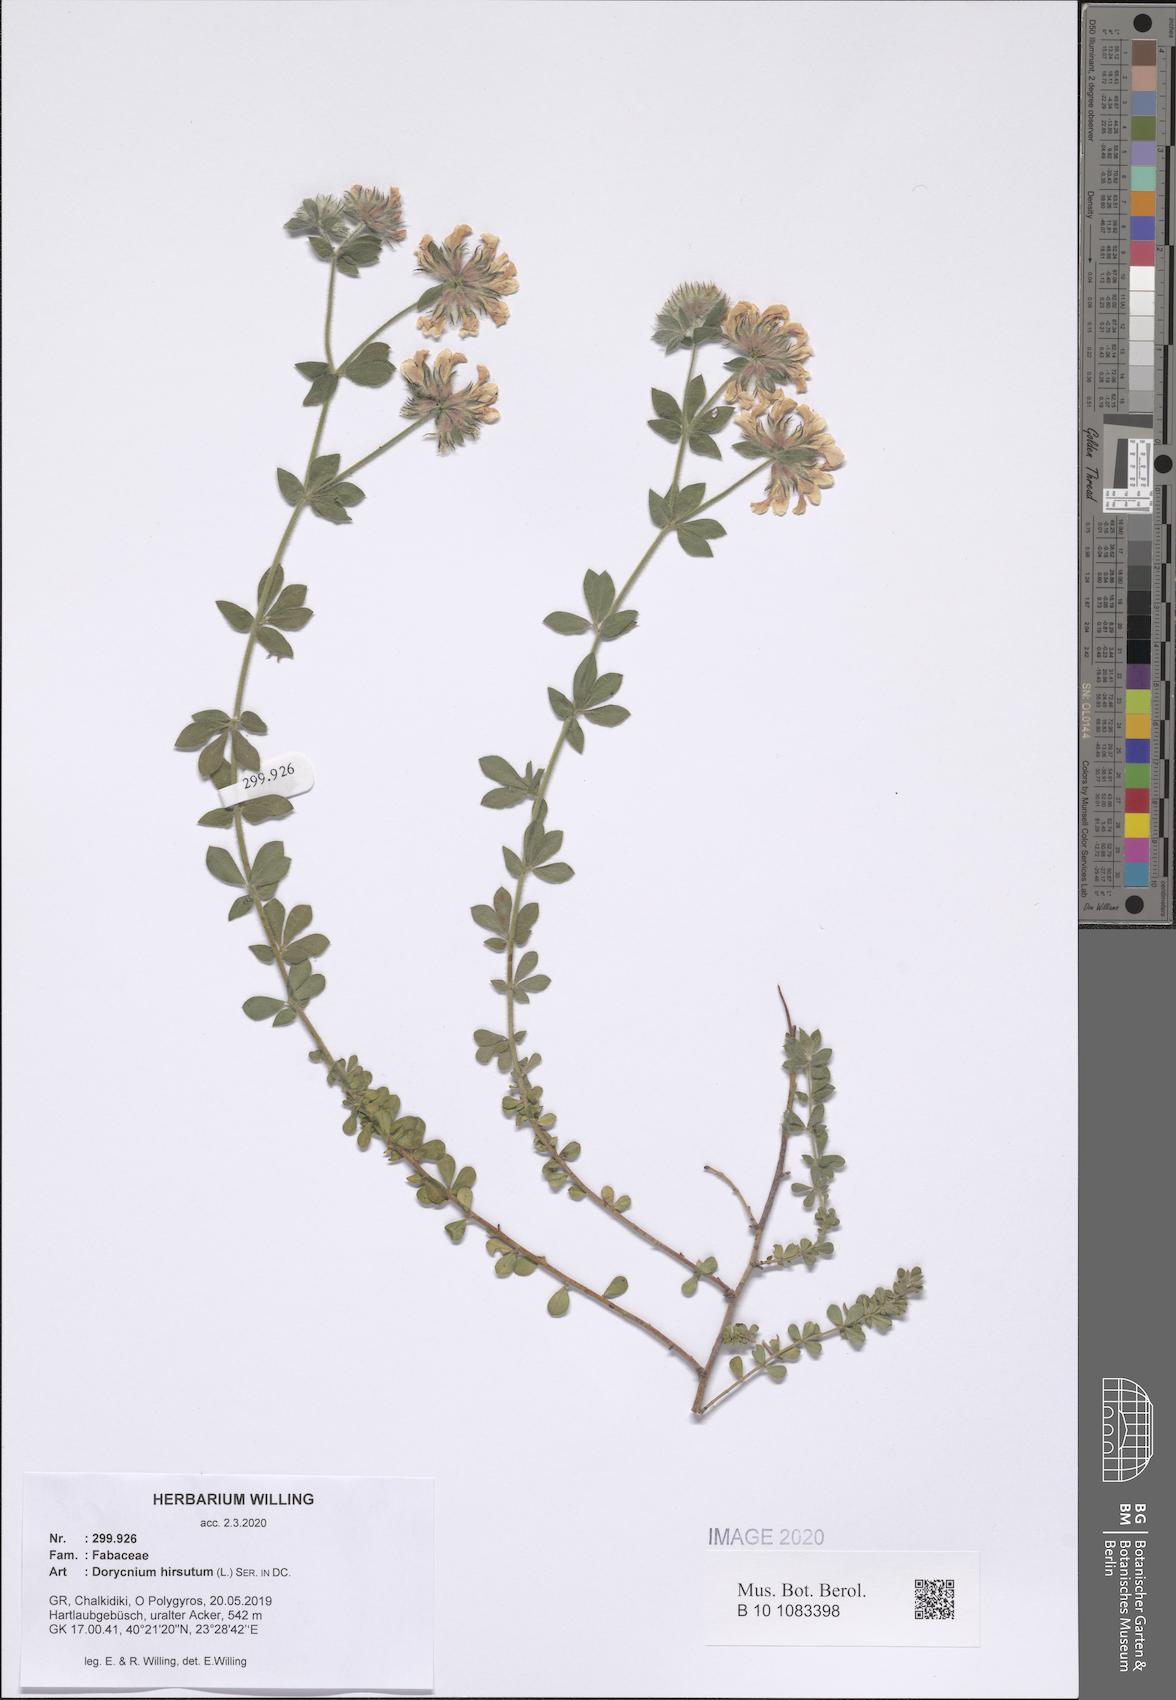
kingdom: Plantae
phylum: Tracheophyta
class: Magnoliopsida
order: Fabales
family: Fabaceae
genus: Lotus
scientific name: Lotus hirsutus
